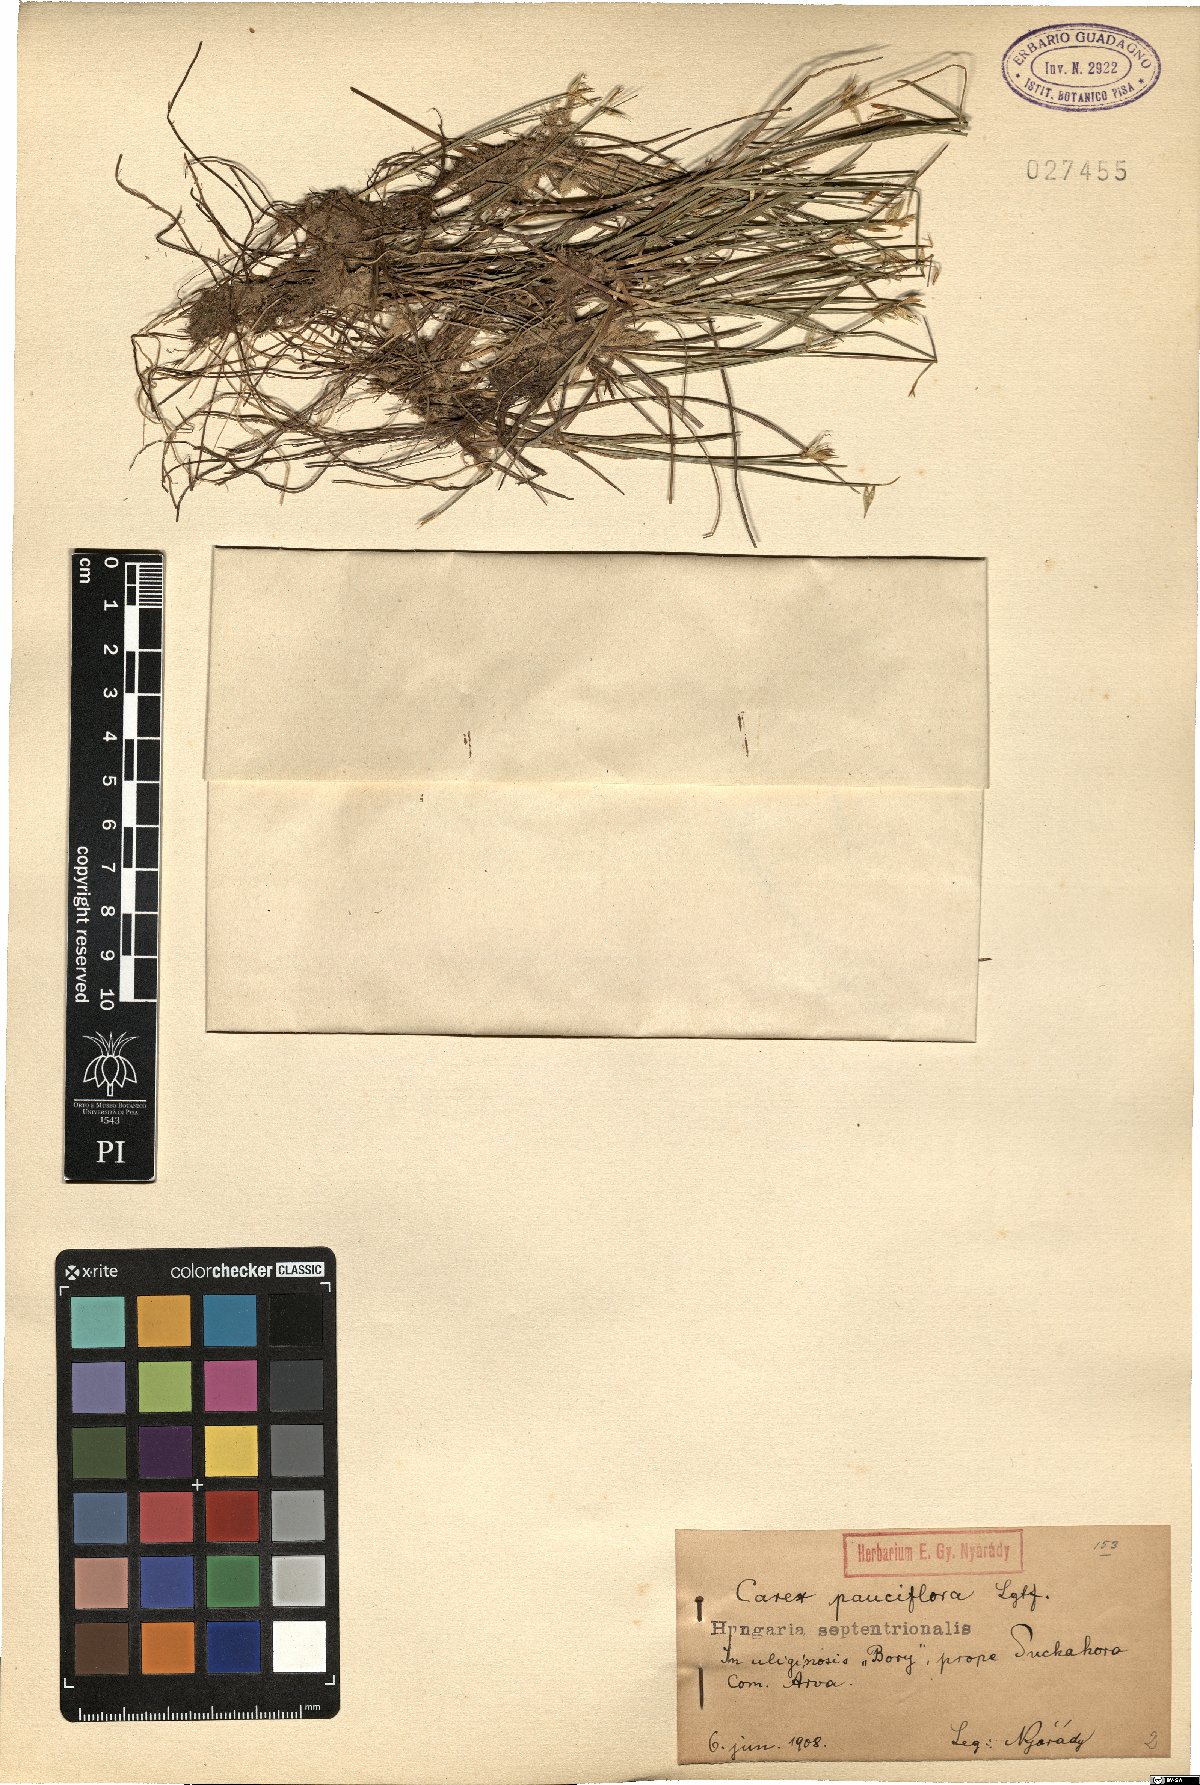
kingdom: Plantae
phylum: Tracheophyta
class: Liliopsida
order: Poales
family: Cyperaceae
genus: Carex
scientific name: Carex pauciflora
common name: Few-flowered sedge
